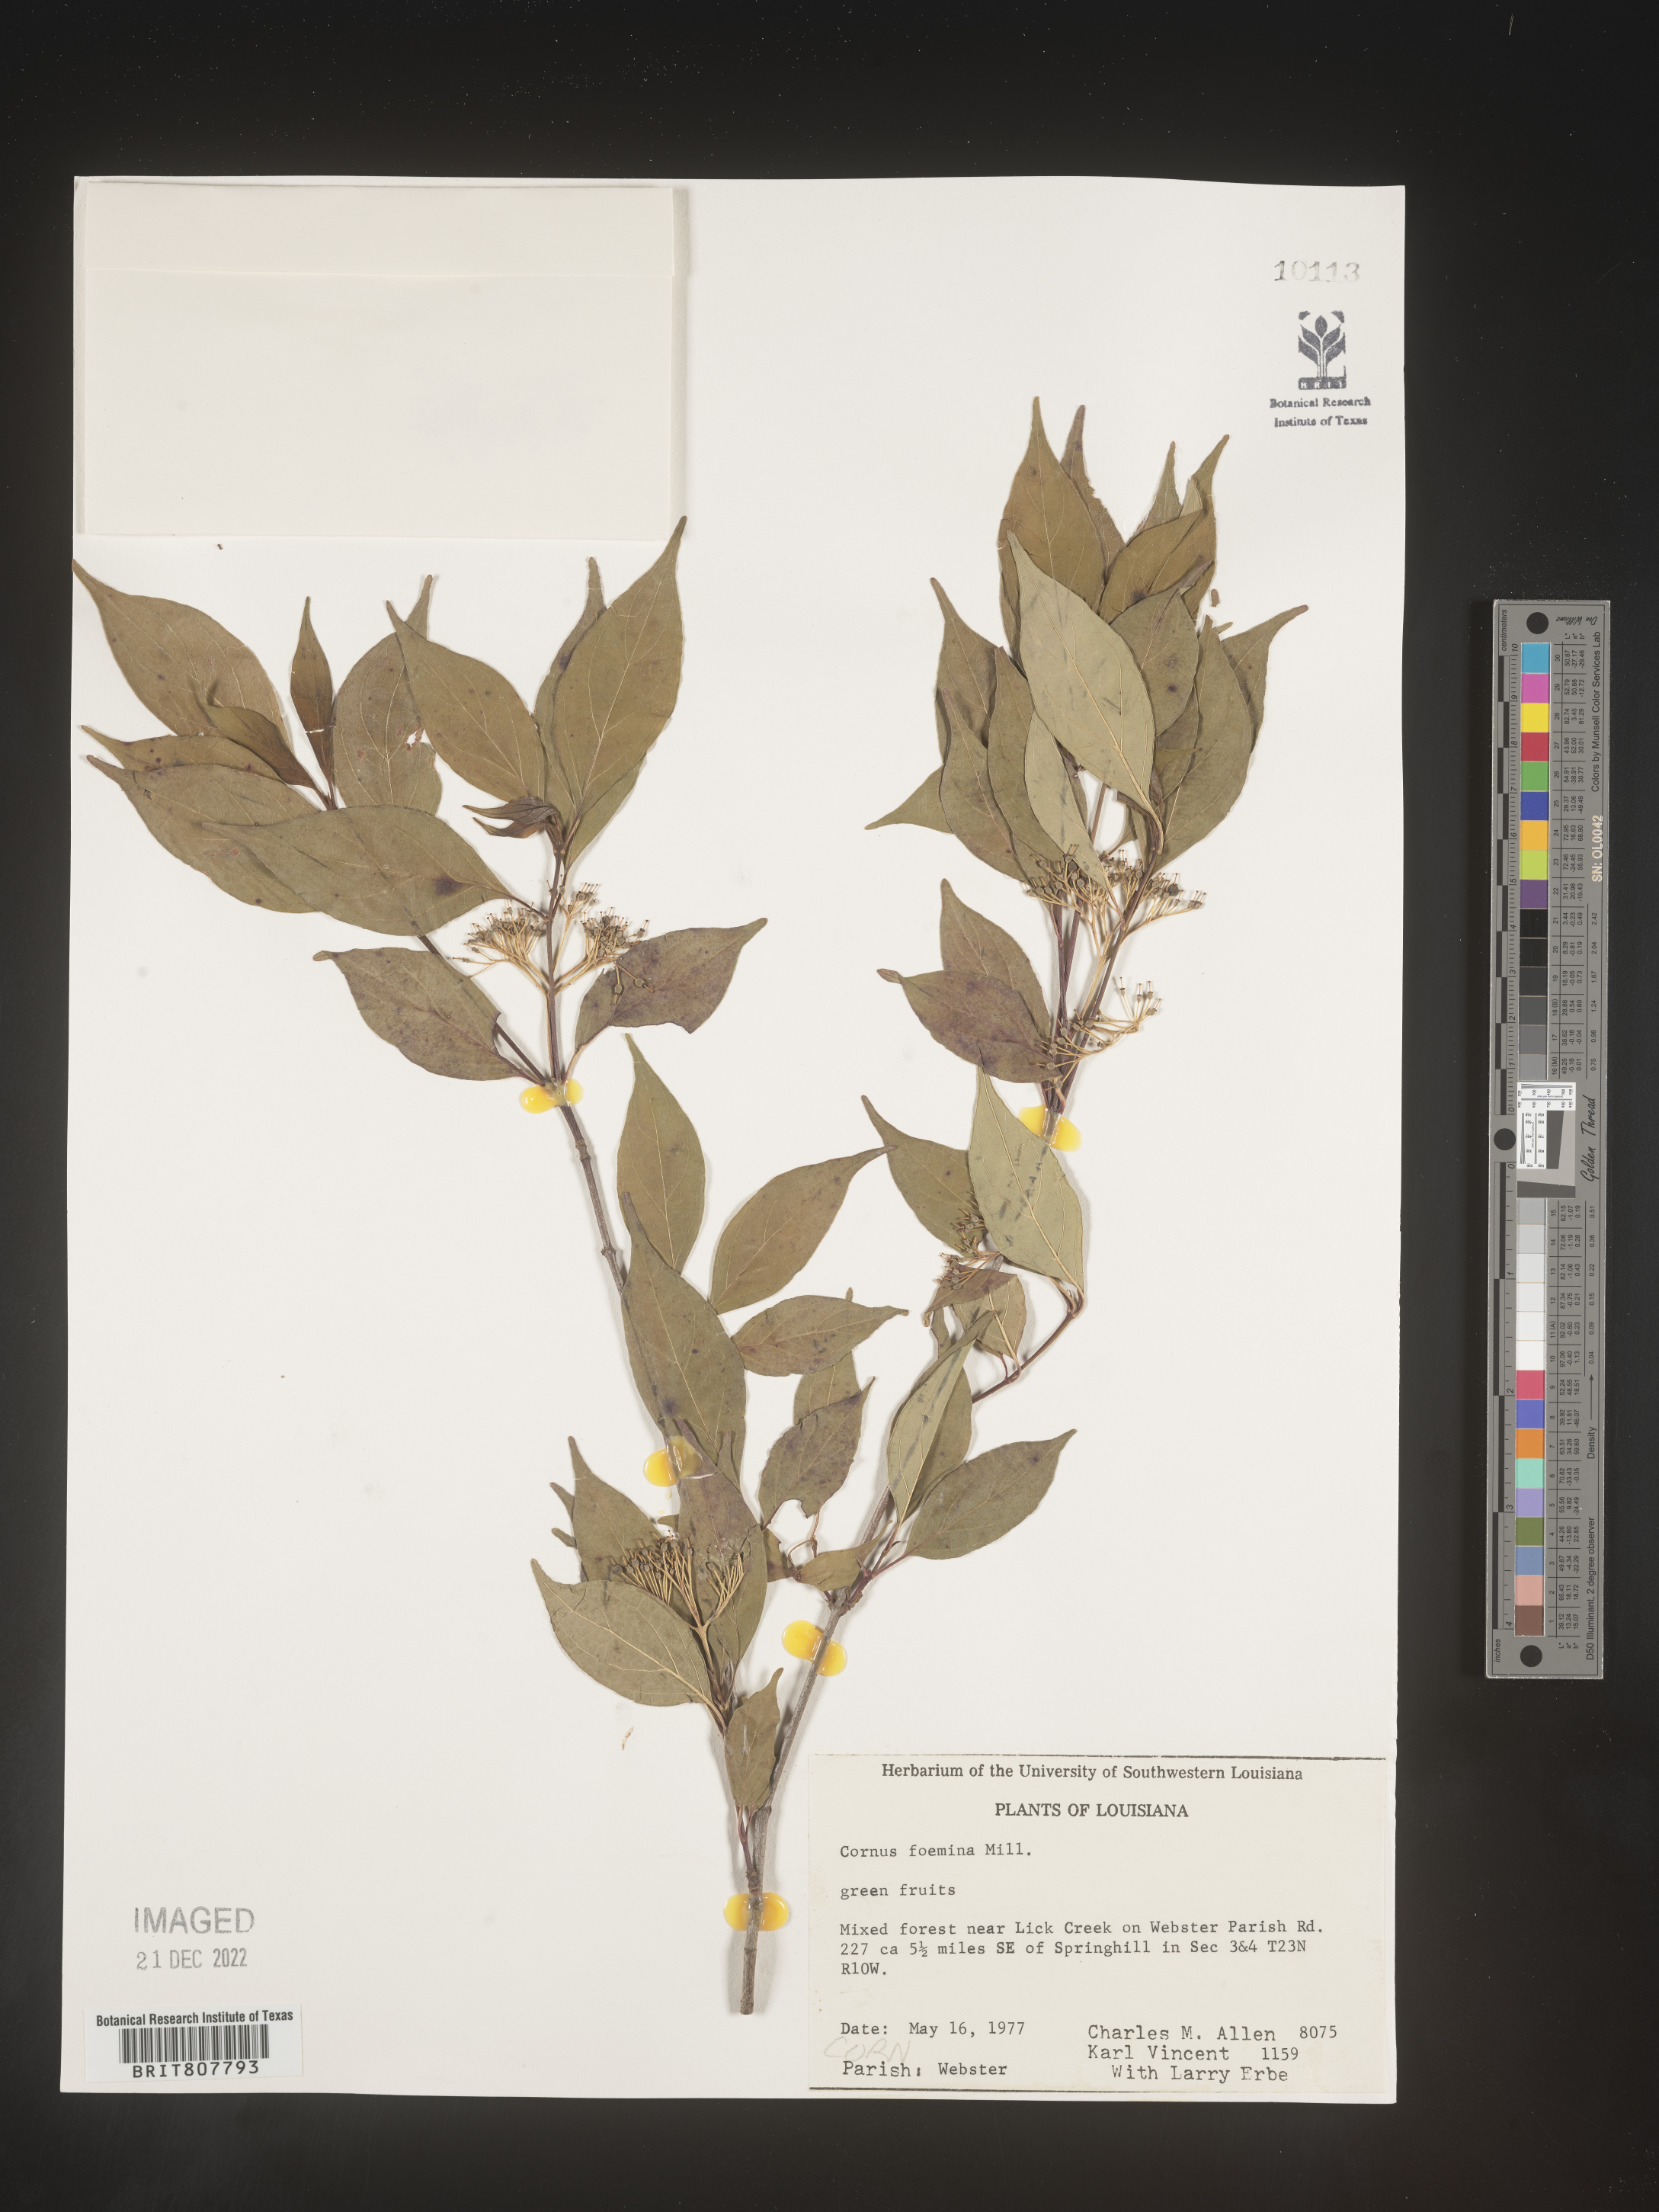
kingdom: Plantae
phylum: Tracheophyta
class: Magnoliopsida
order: Cornales
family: Cornaceae
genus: Cornus
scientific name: Cornus foemina
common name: Swamp dogwood
